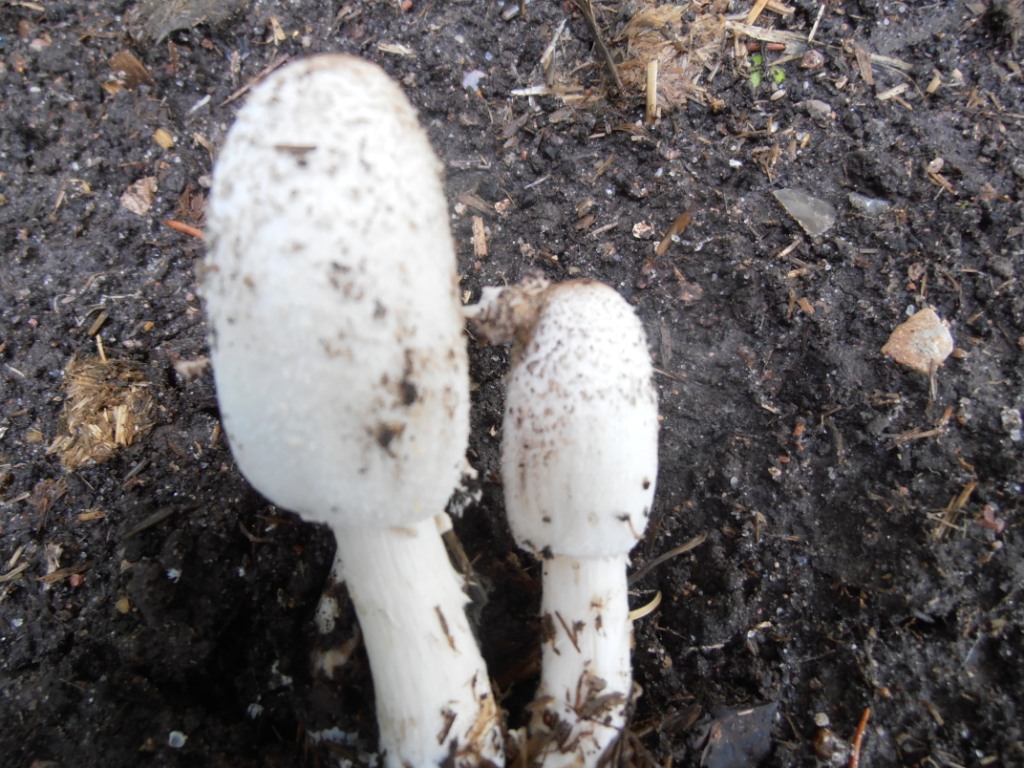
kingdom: Fungi
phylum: Basidiomycota
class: Agaricomycetes
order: Agaricales
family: Agaricaceae
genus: Coprinus
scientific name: Coprinus sterquilinus
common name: møg-parykhat
